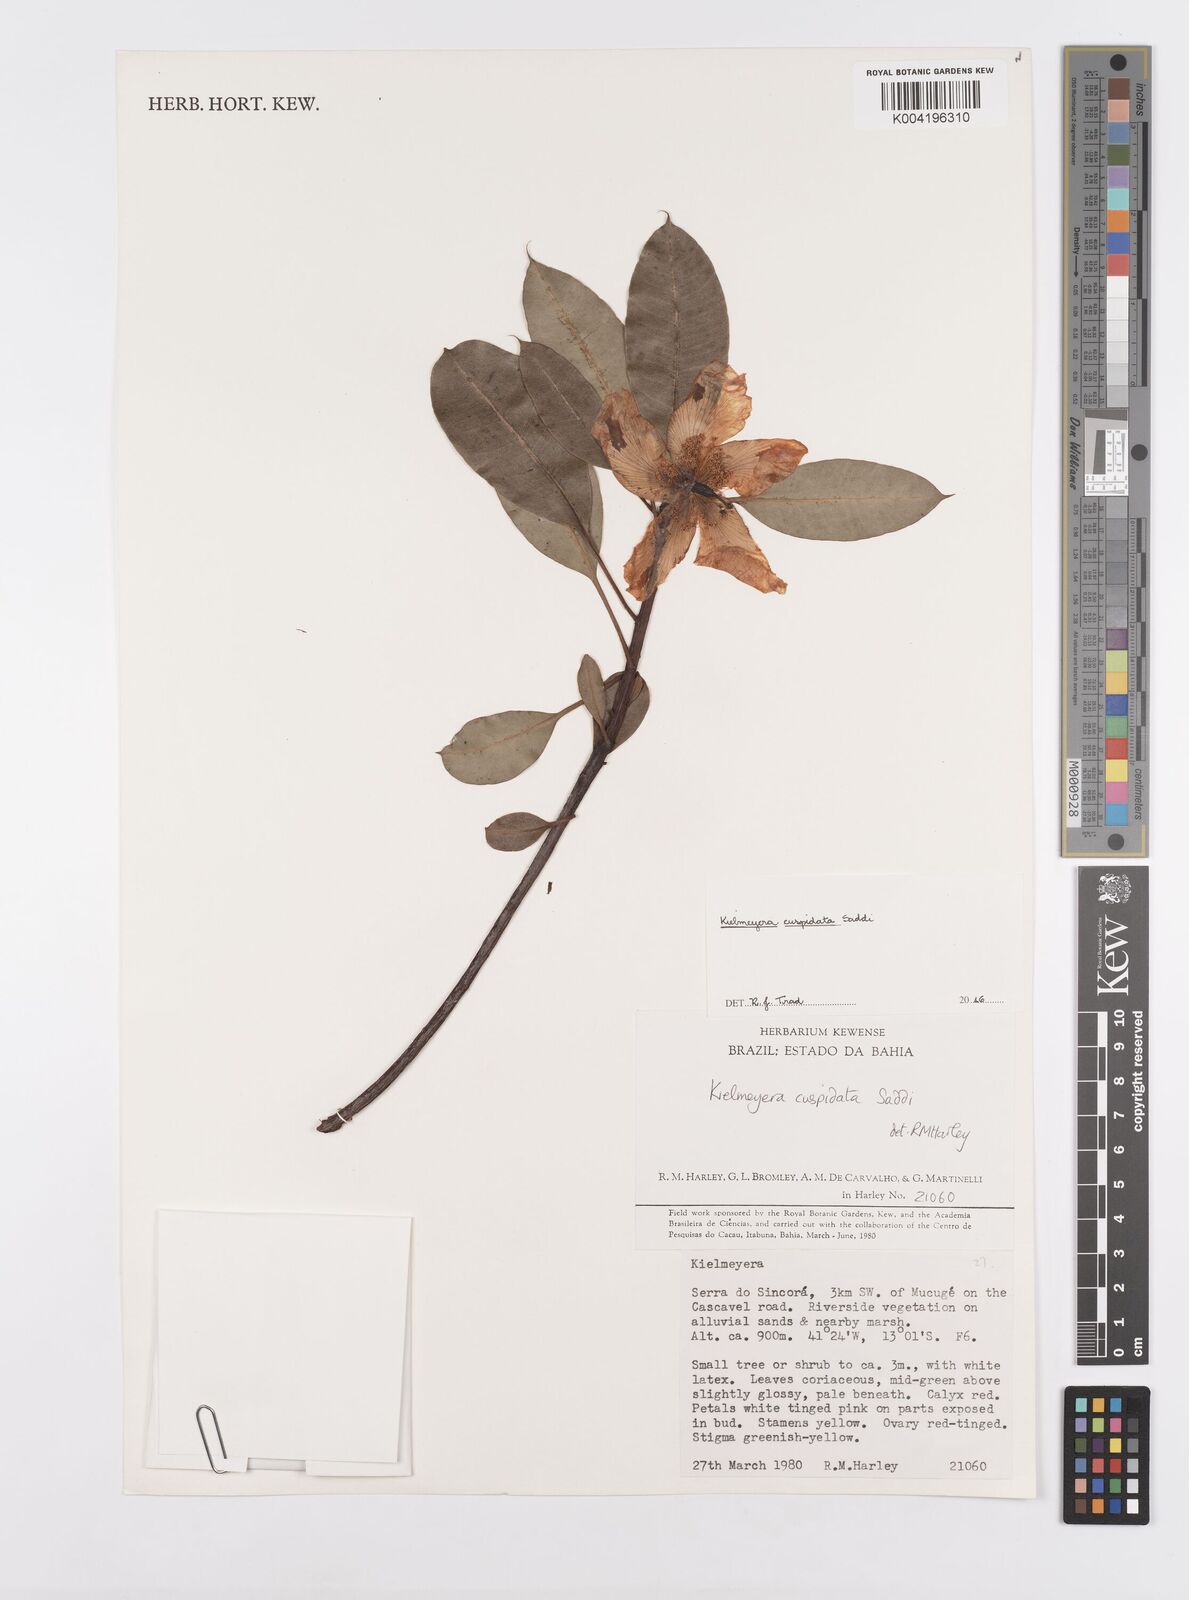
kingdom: Plantae
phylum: Tracheophyta
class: Magnoliopsida
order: Malpighiales
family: Calophyllaceae
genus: Kielmeyera
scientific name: Kielmeyera cuspidata
